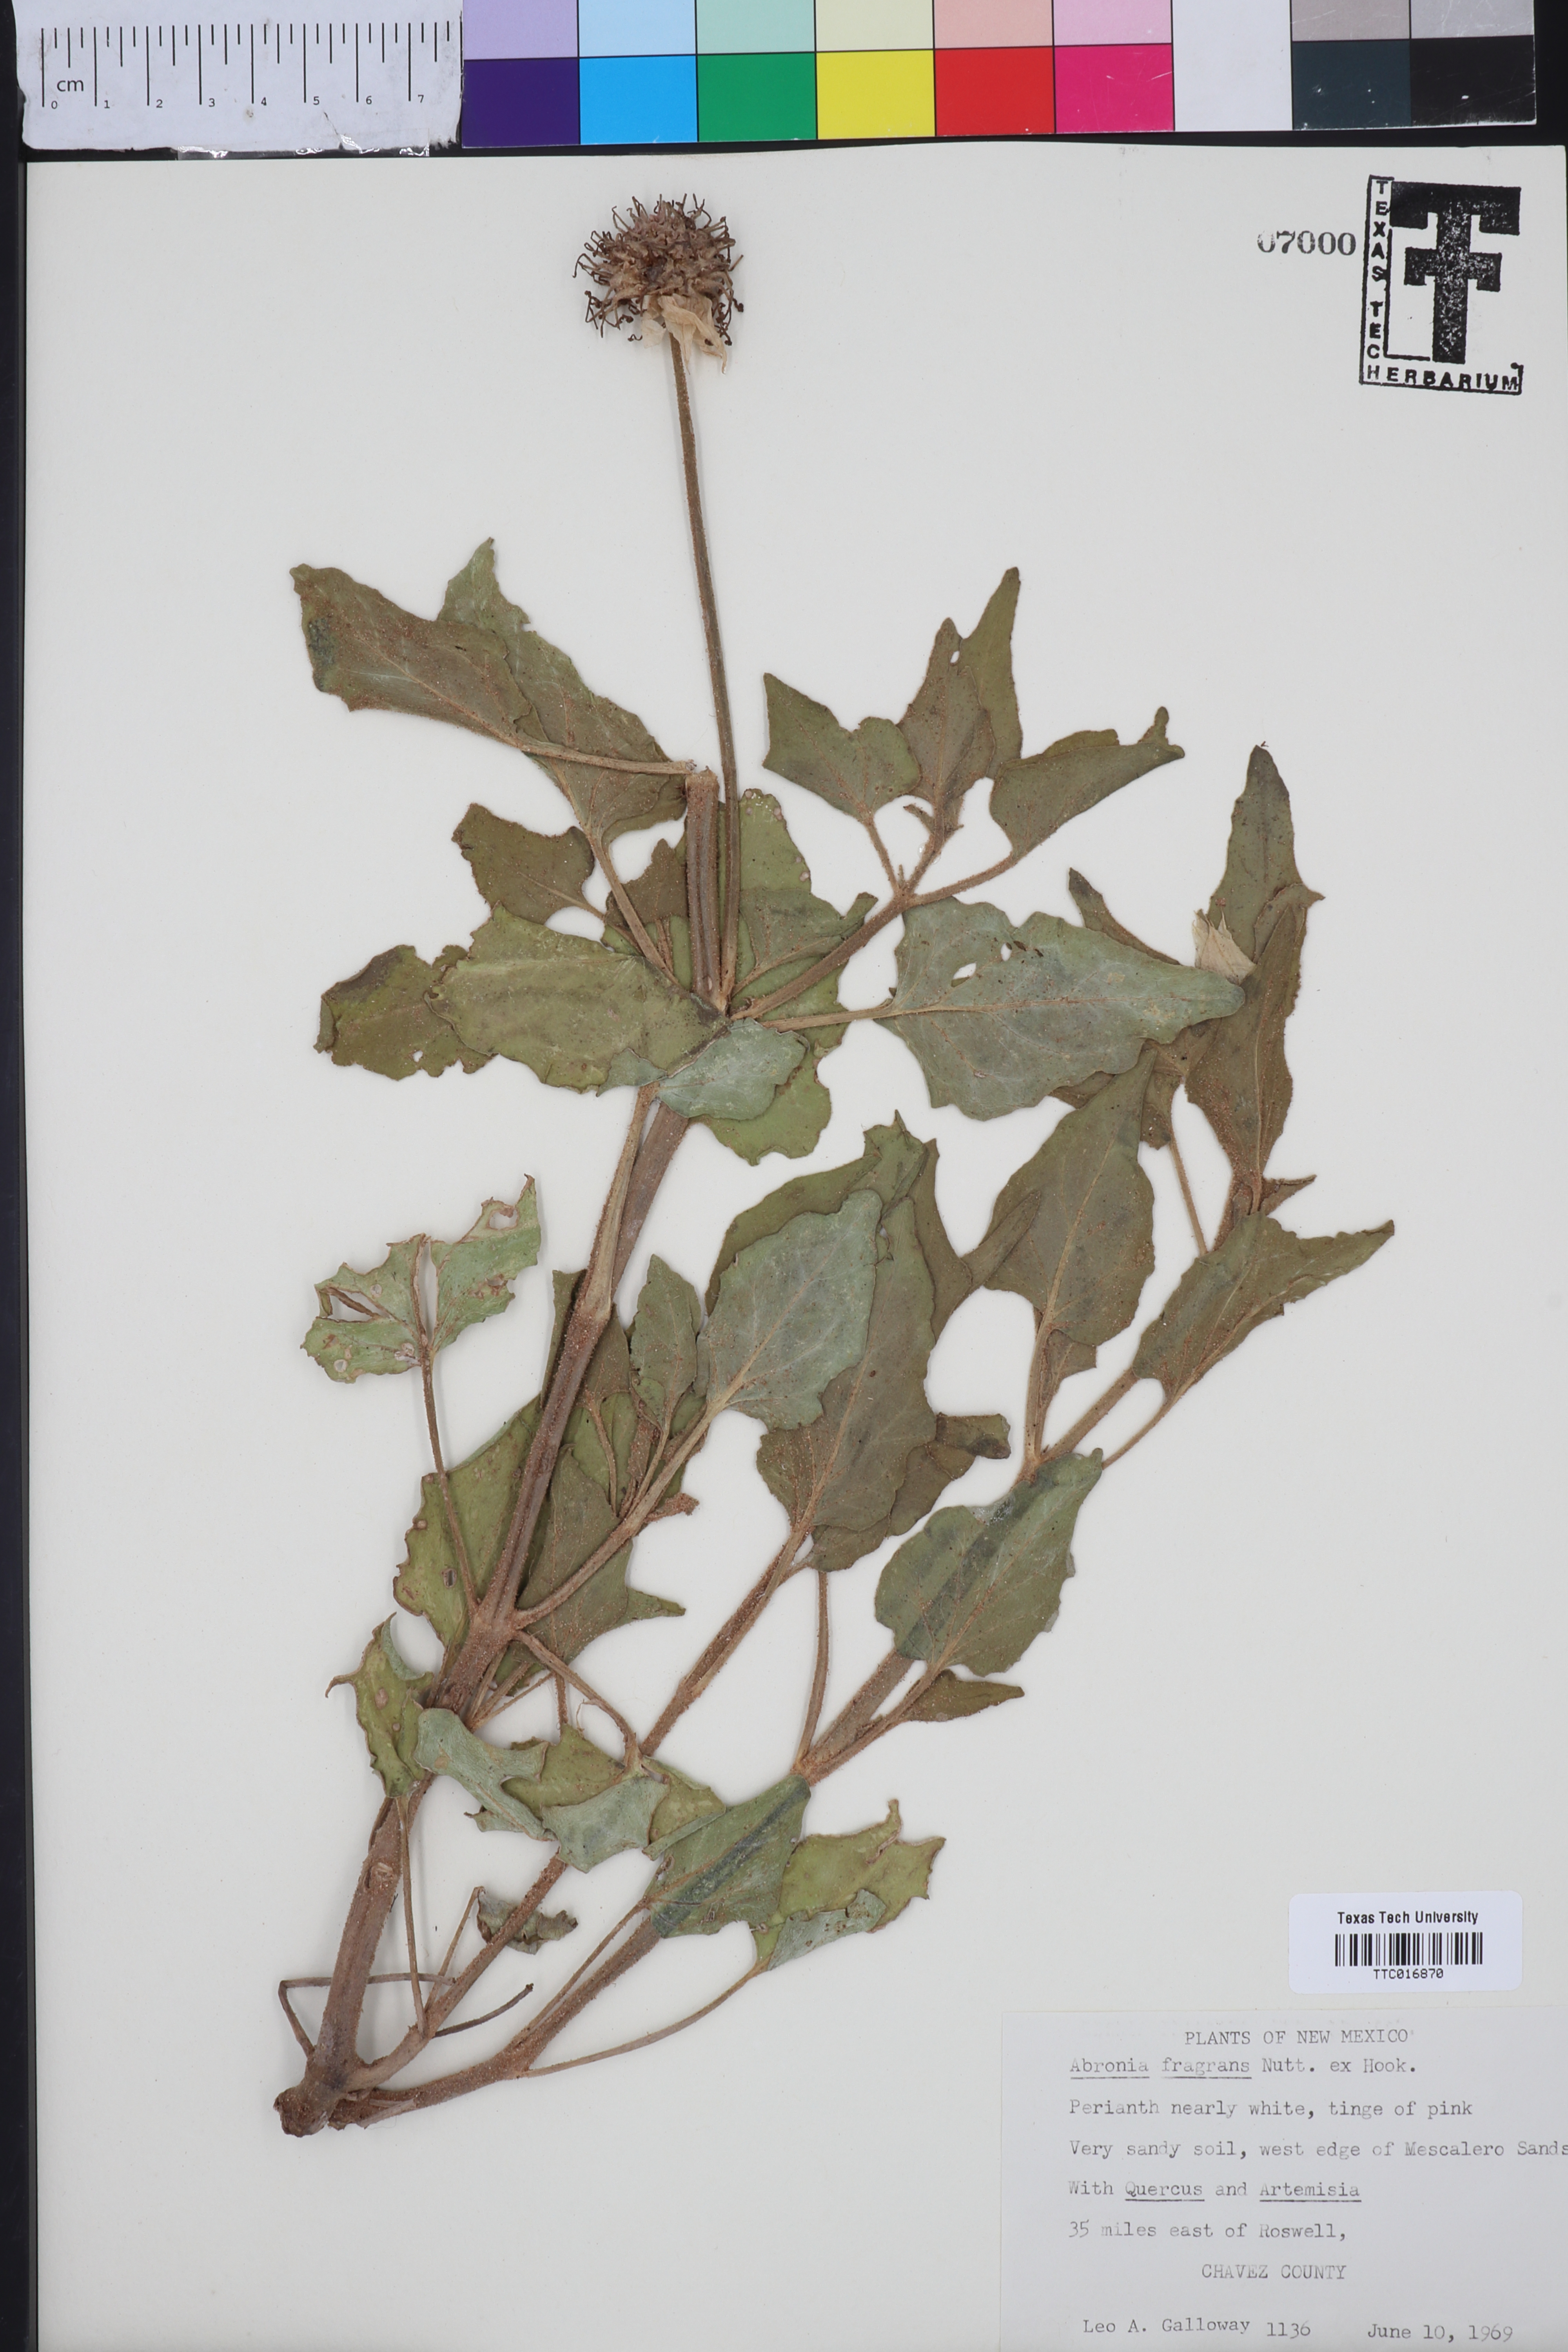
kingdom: Plantae
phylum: Tracheophyta
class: Magnoliopsida
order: Caryophyllales
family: Nyctaginaceae
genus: Abronia
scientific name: Abronia fragrans
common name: Fragrant sand-verbena
